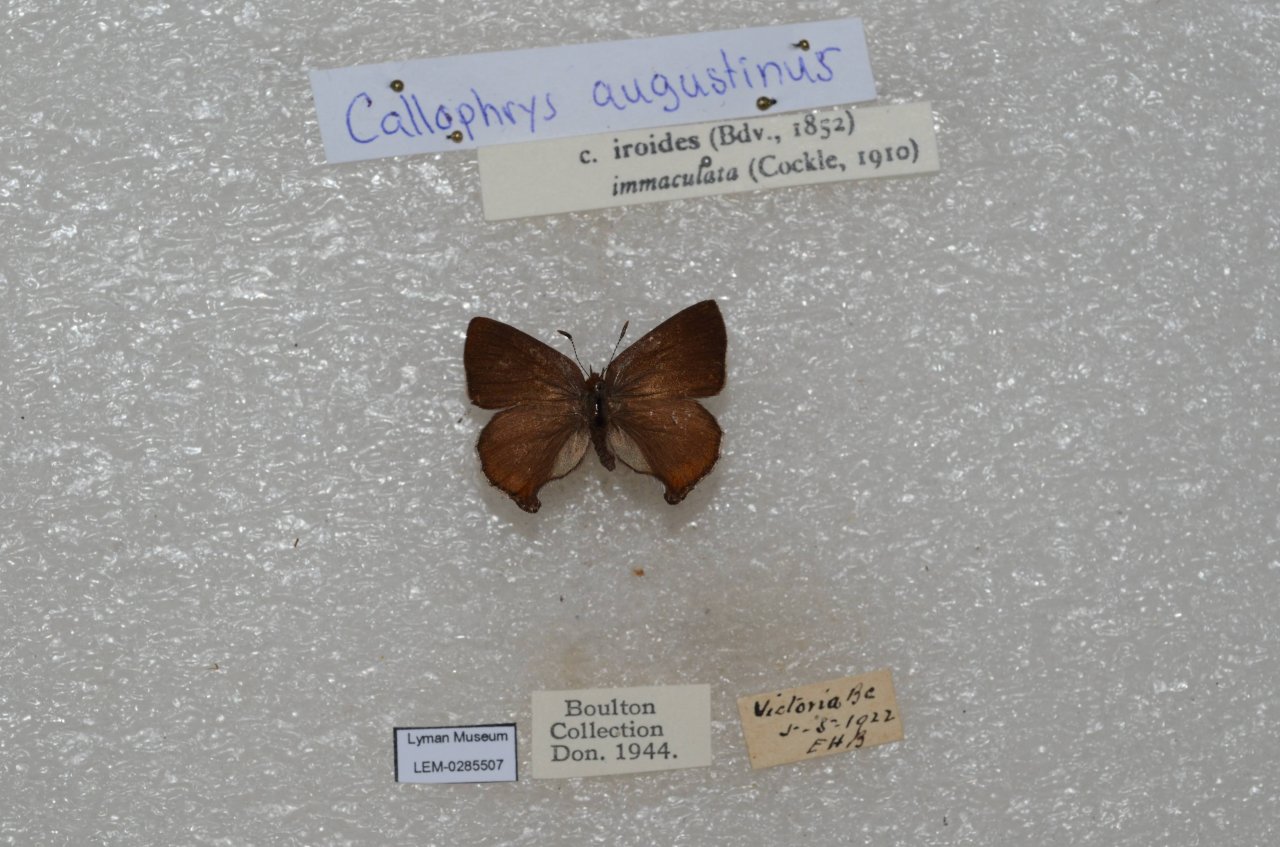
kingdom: Animalia
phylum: Arthropoda
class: Insecta
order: Lepidoptera
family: Lycaenidae
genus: Incisalia
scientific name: Incisalia irioides
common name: Brown Elfin
